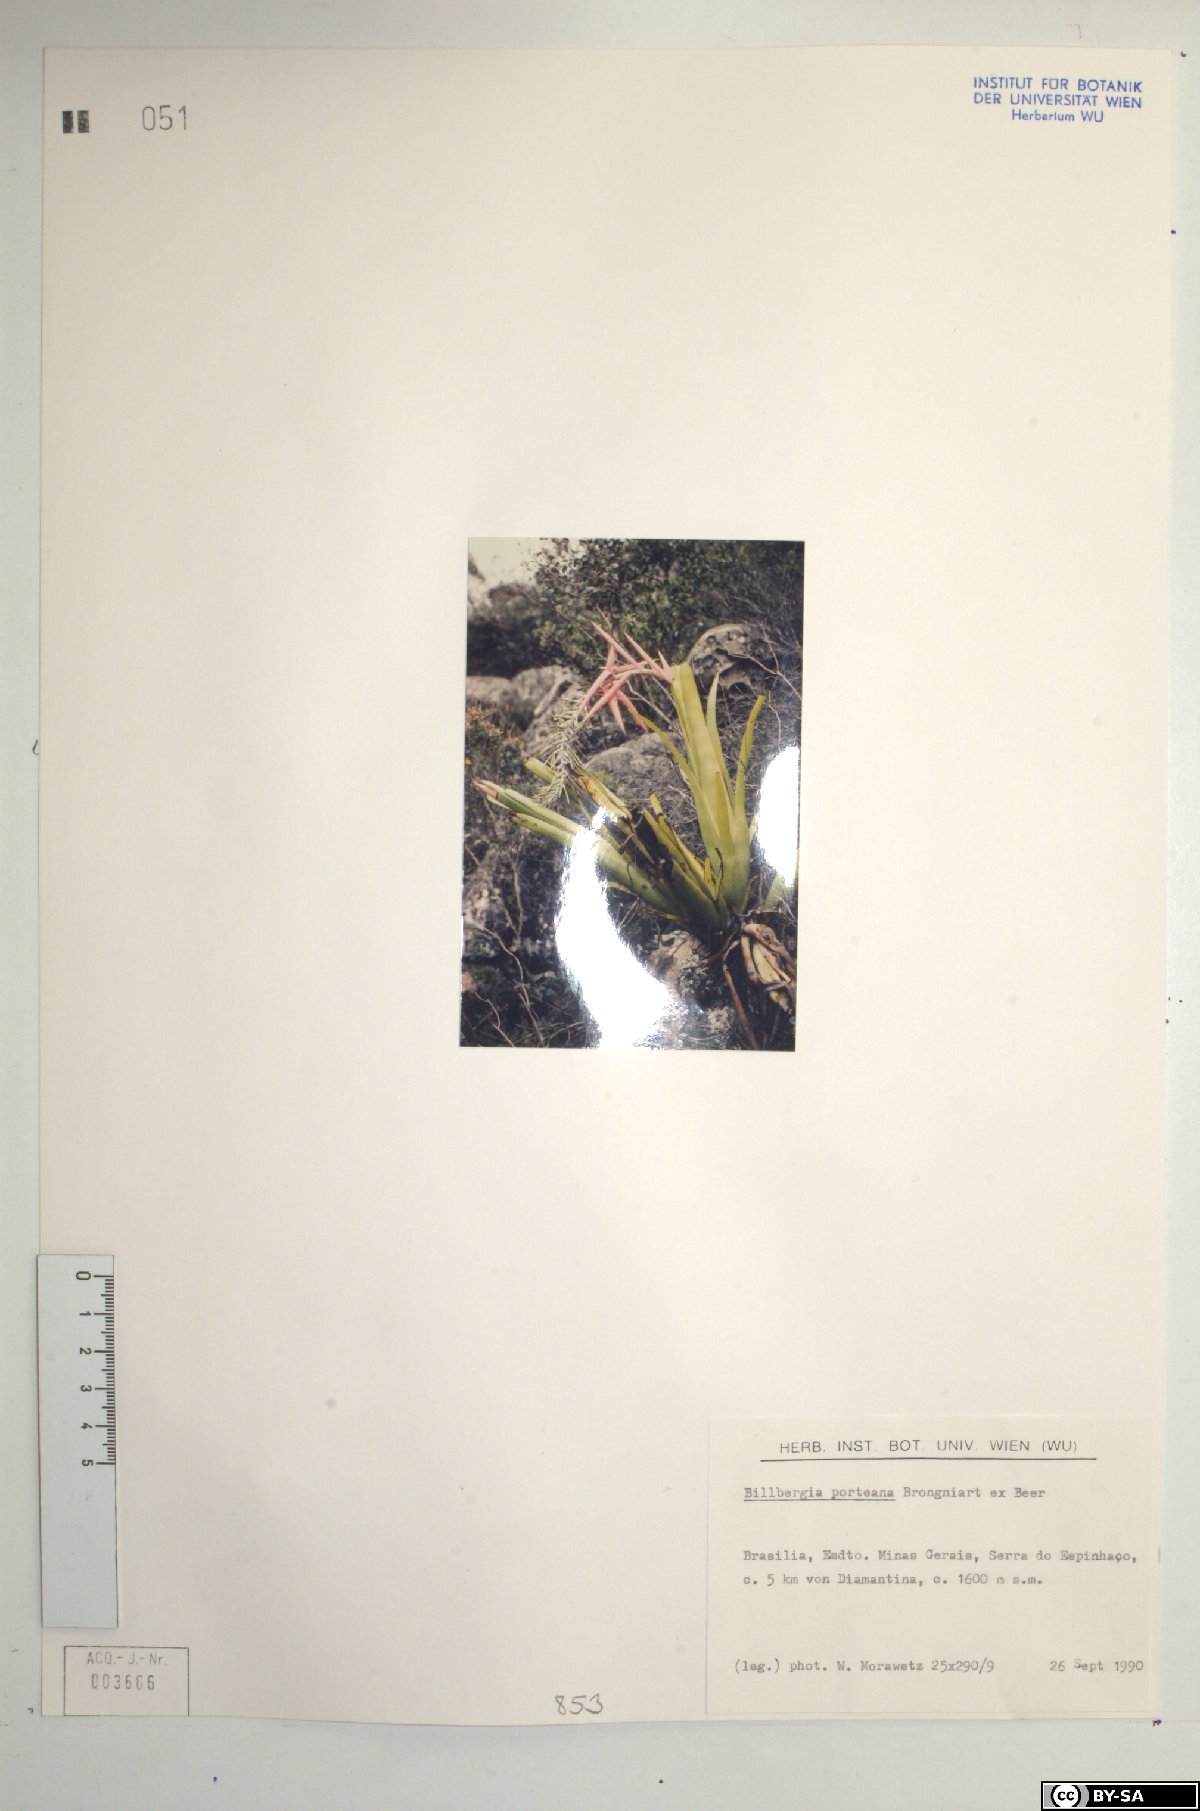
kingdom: Plantae
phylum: Tracheophyta
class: Liliopsida
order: Poales
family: Bromeliaceae
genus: Billbergia
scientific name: Billbergia porteana
